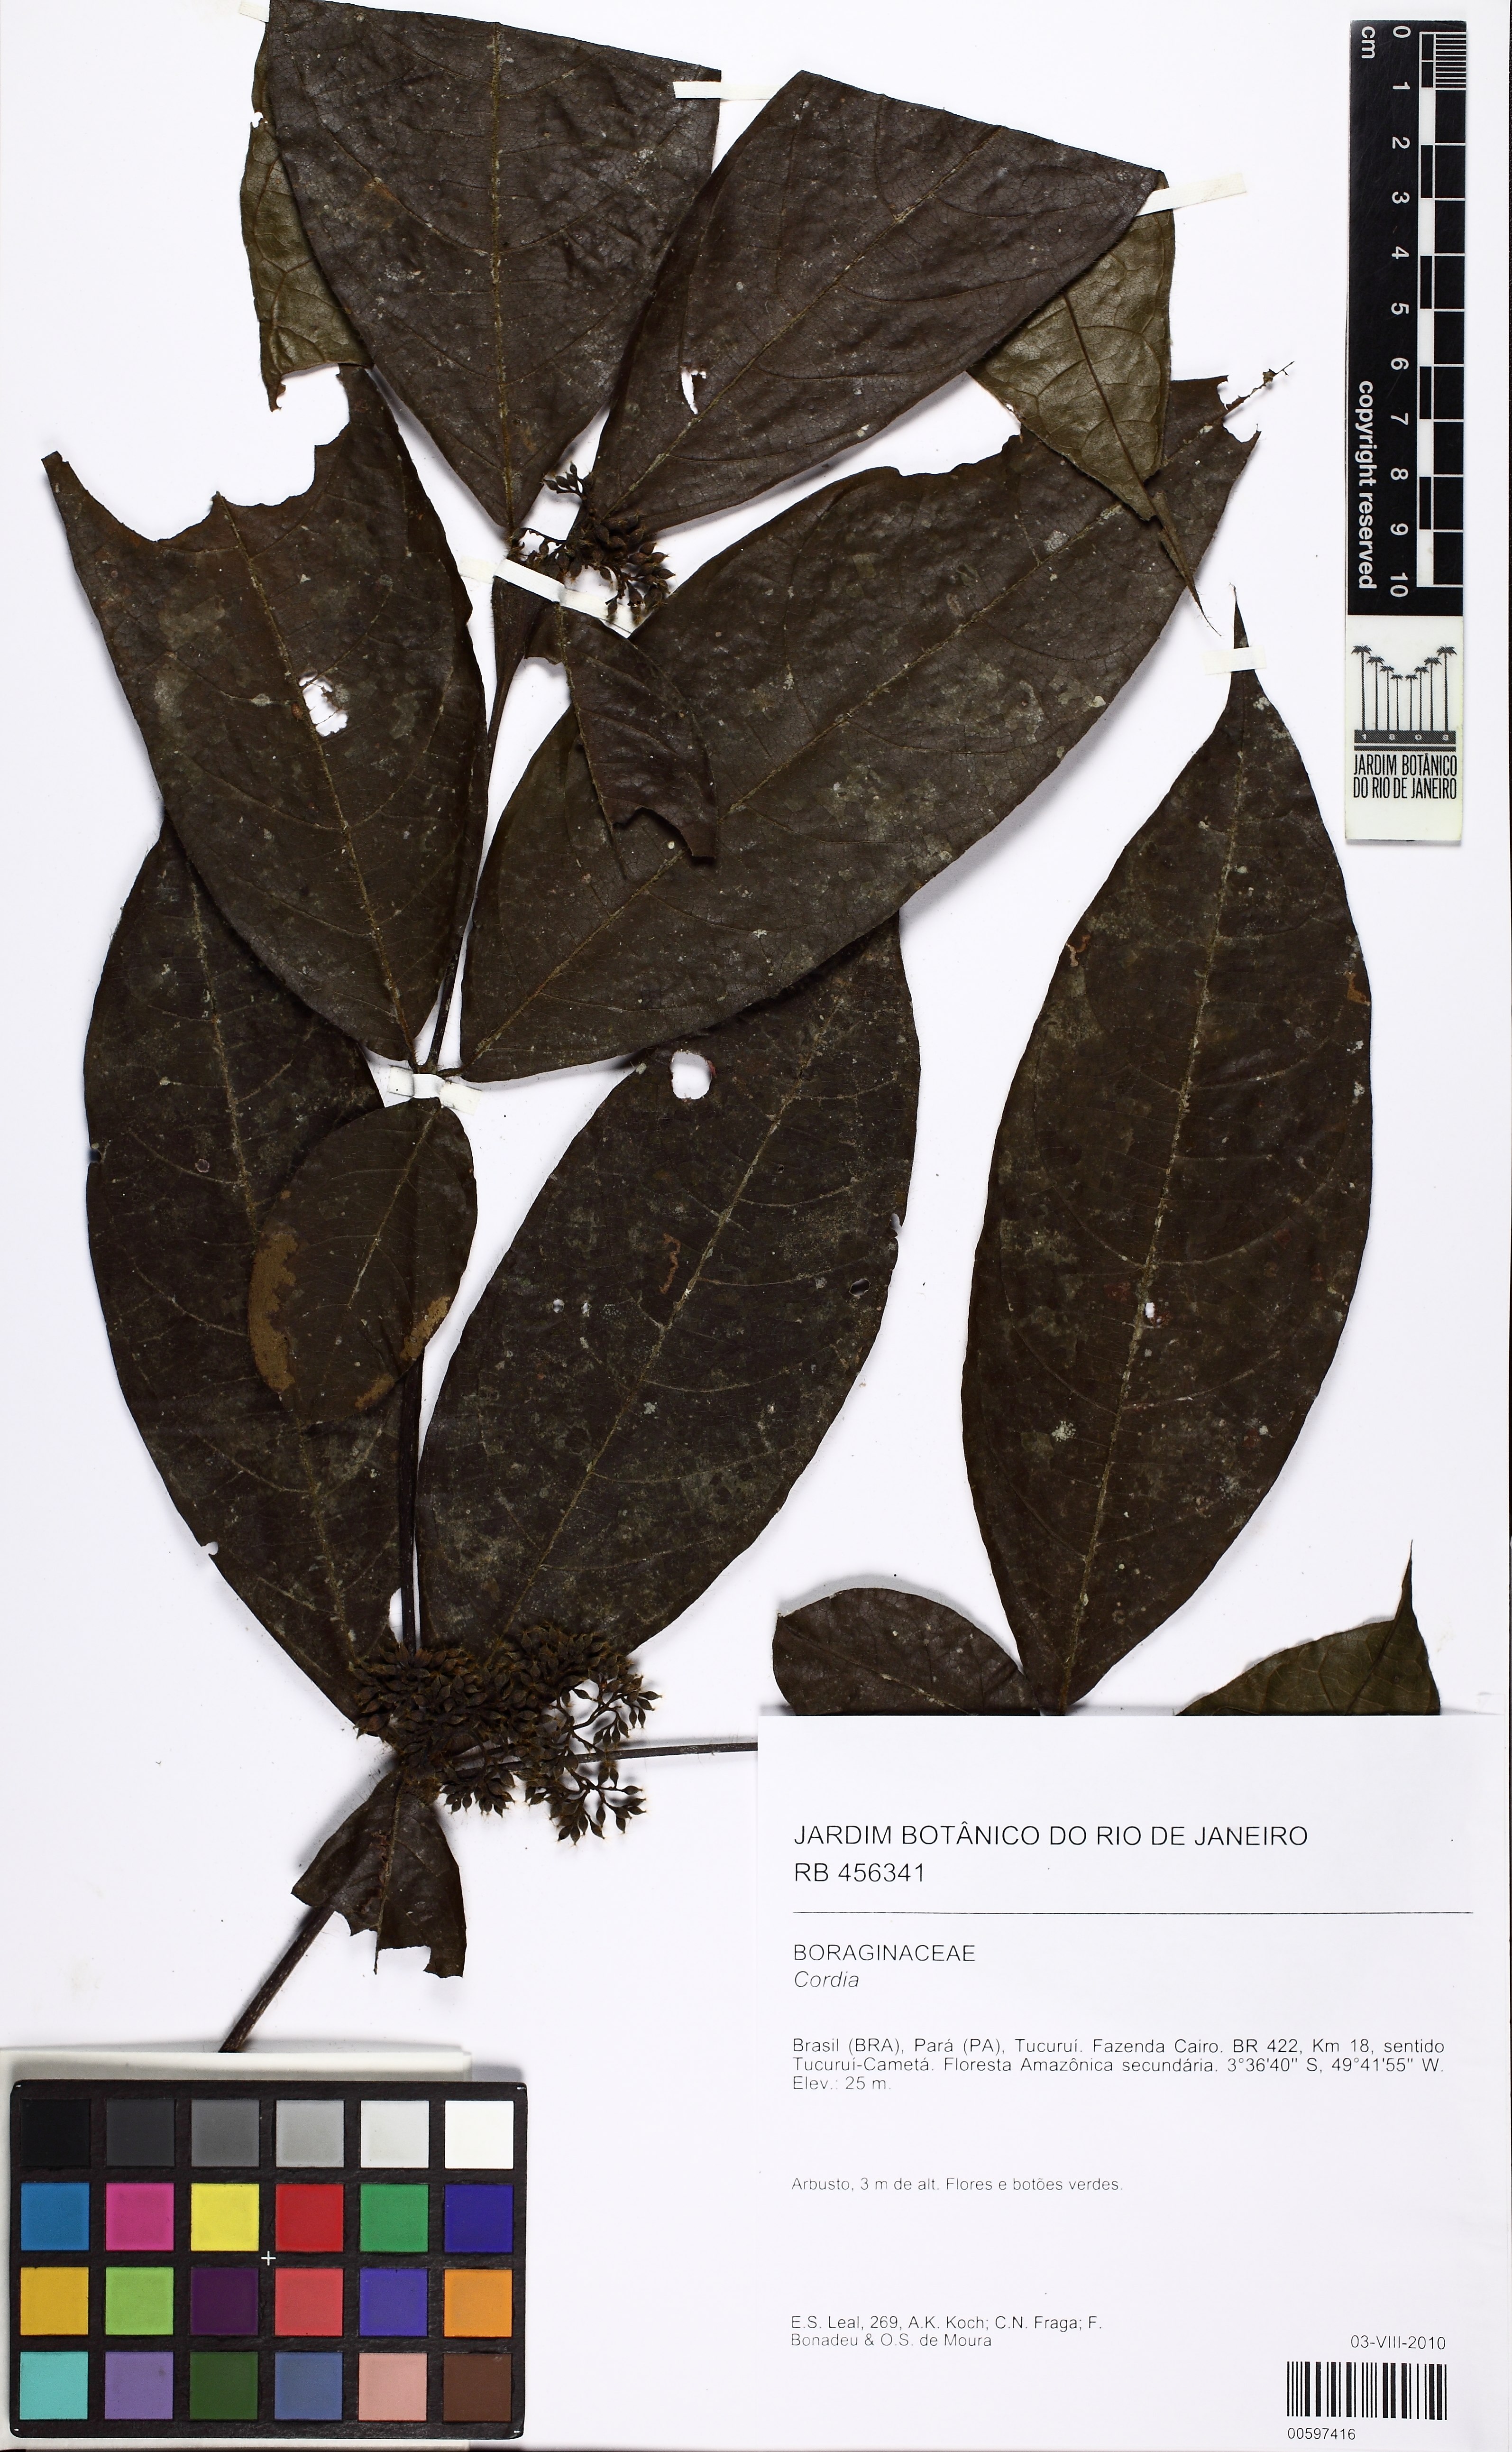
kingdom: Plantae
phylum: Tracheophyta
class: Magnoliopsida
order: Boraginales
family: Cordiaceae
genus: Cordia
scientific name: Cordia
